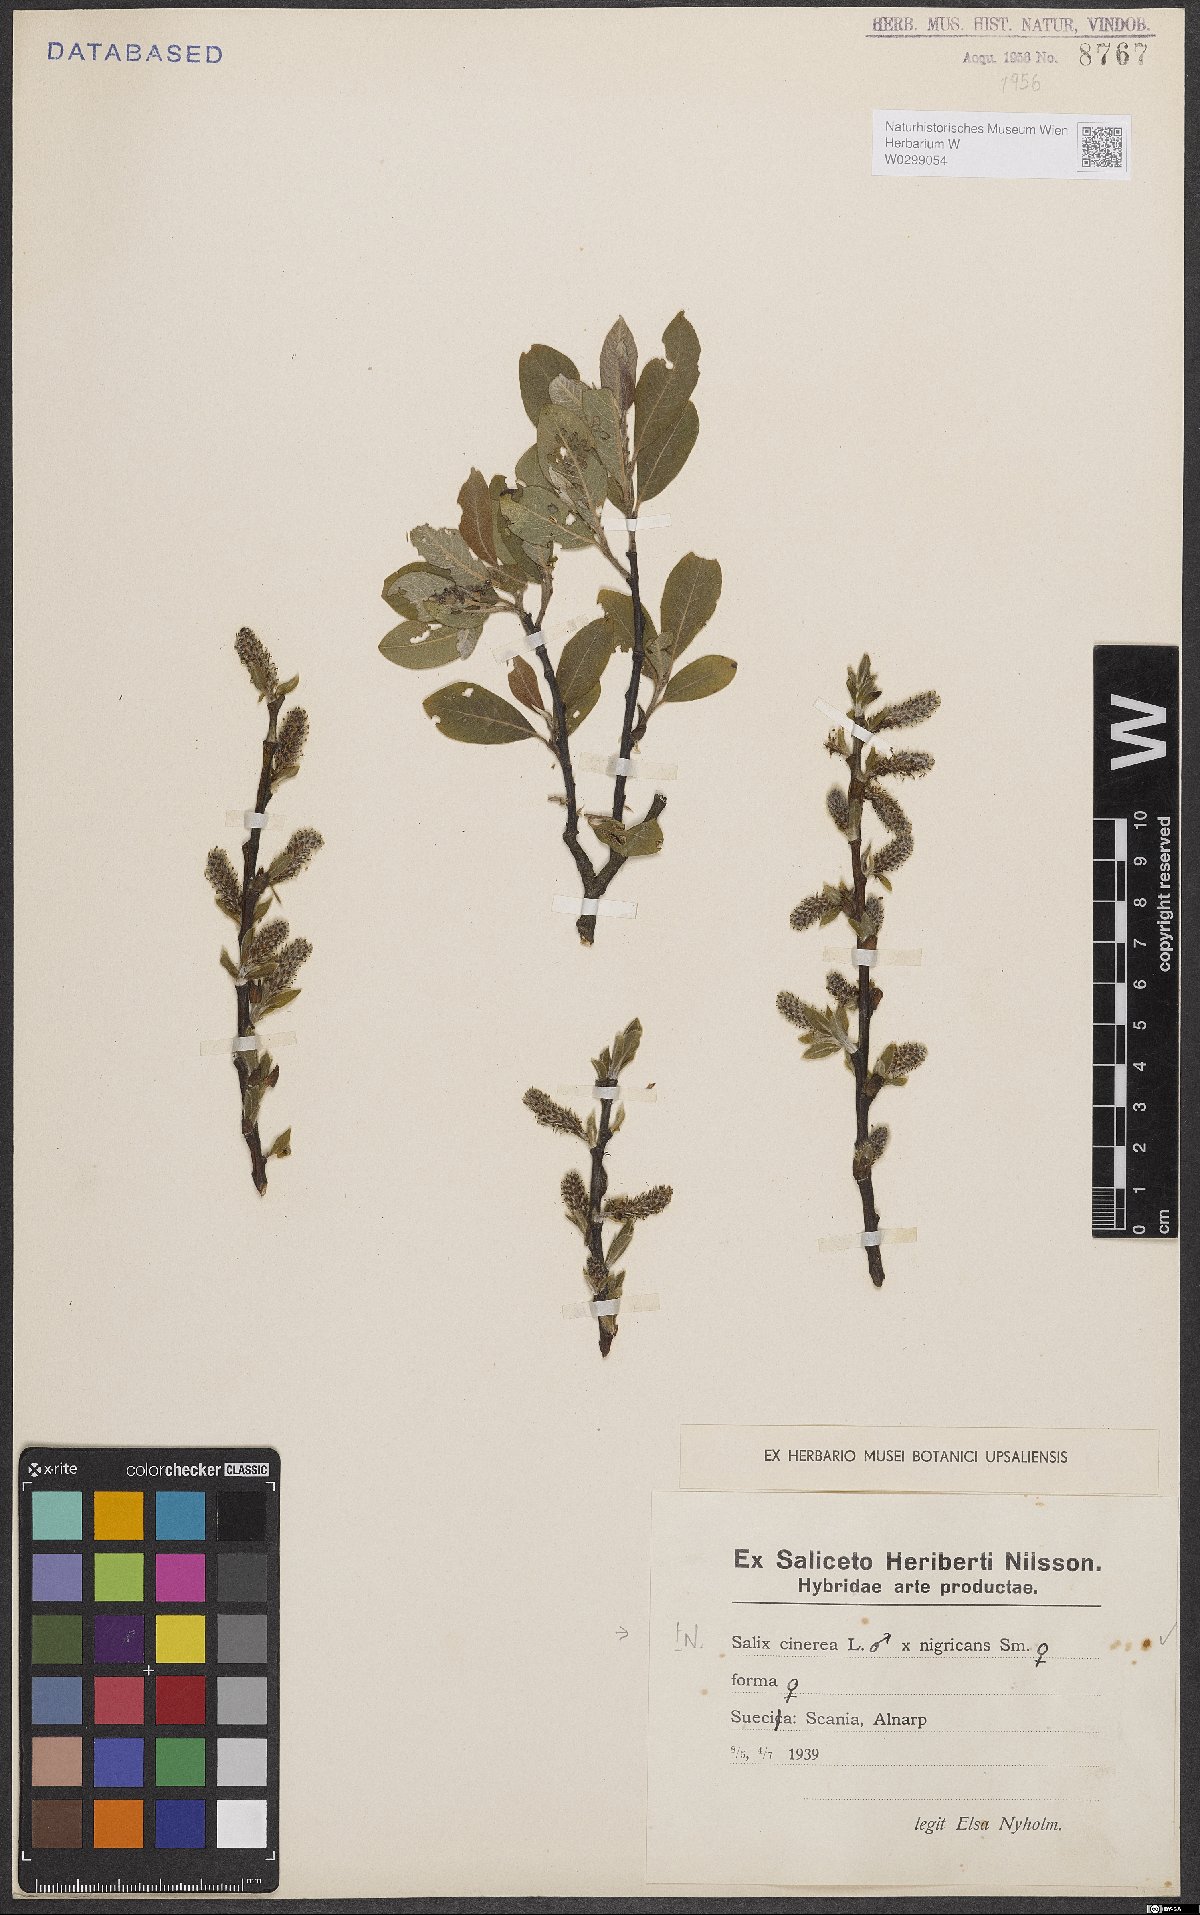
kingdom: Plantae
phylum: Tracheophyta
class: Magnoliopsida
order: Malpighiales
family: Salicaceae
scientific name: Salicaceae
